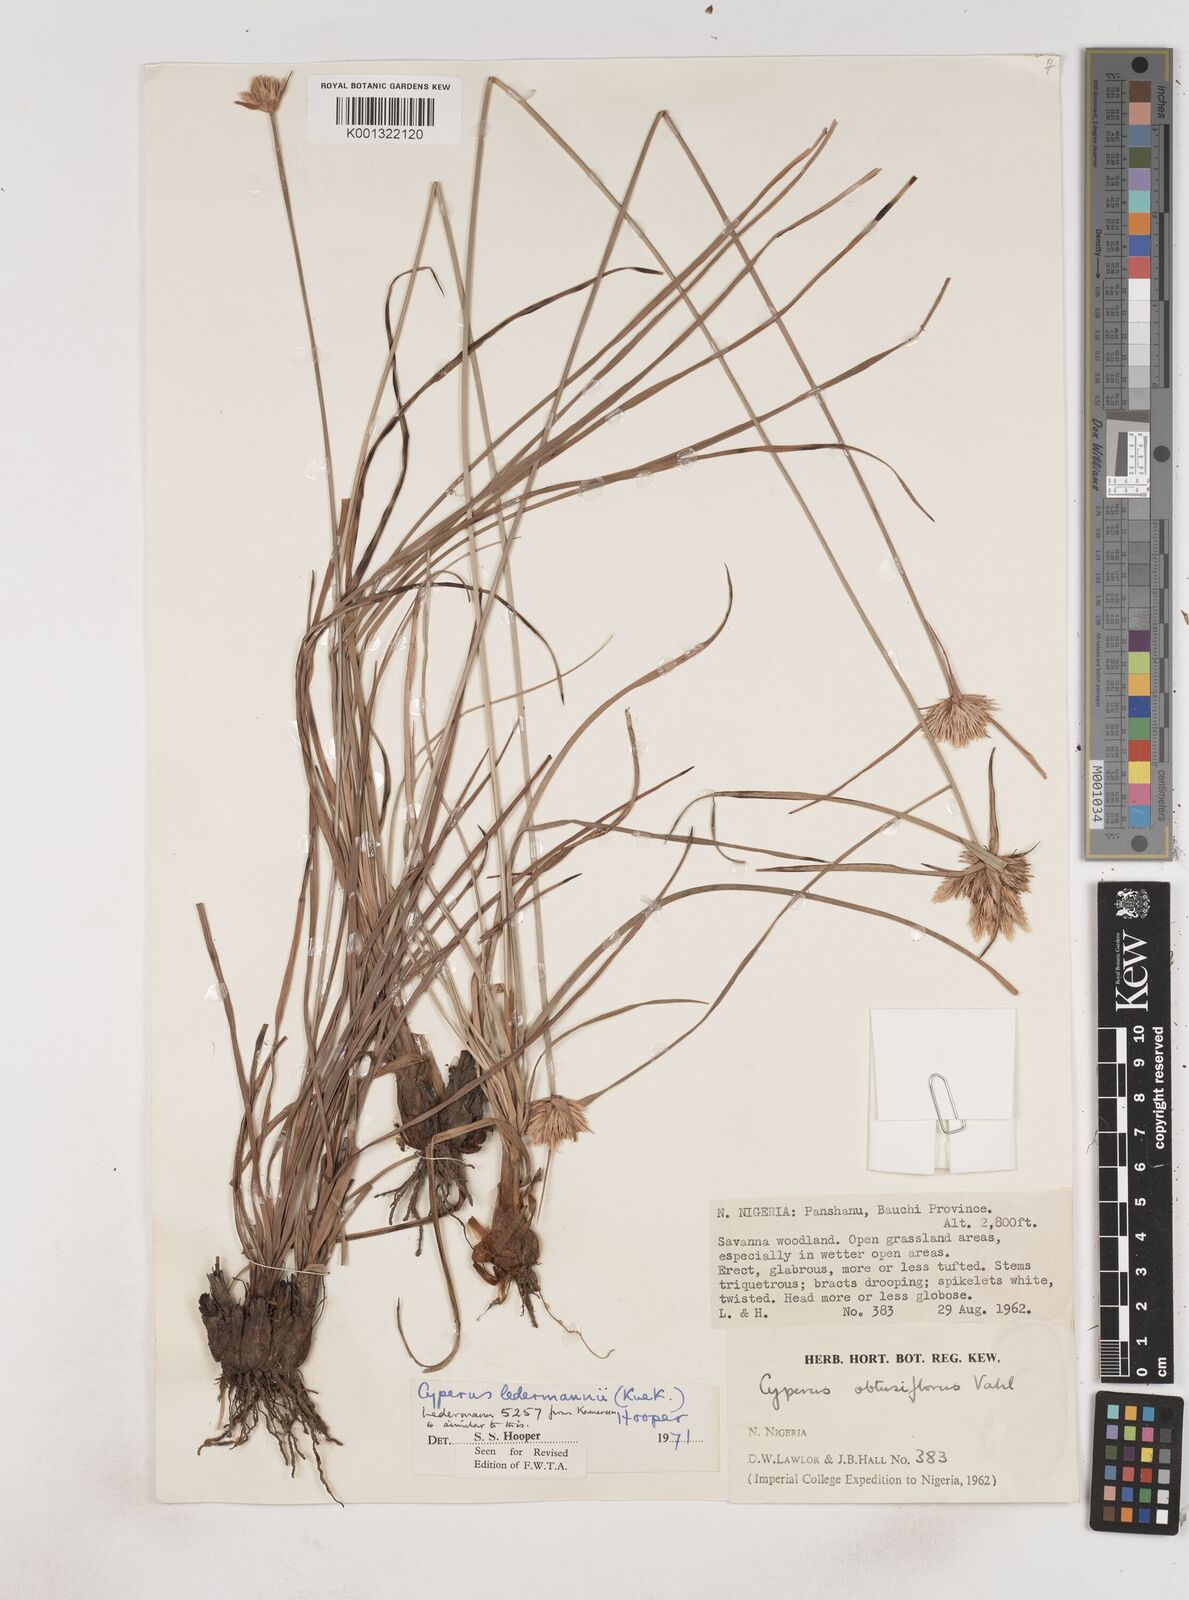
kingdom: Plantae
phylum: Tracheophyta
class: Liliopsida
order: Poales
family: Cyperaceae
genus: Cyperus
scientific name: Cyperus niveus
